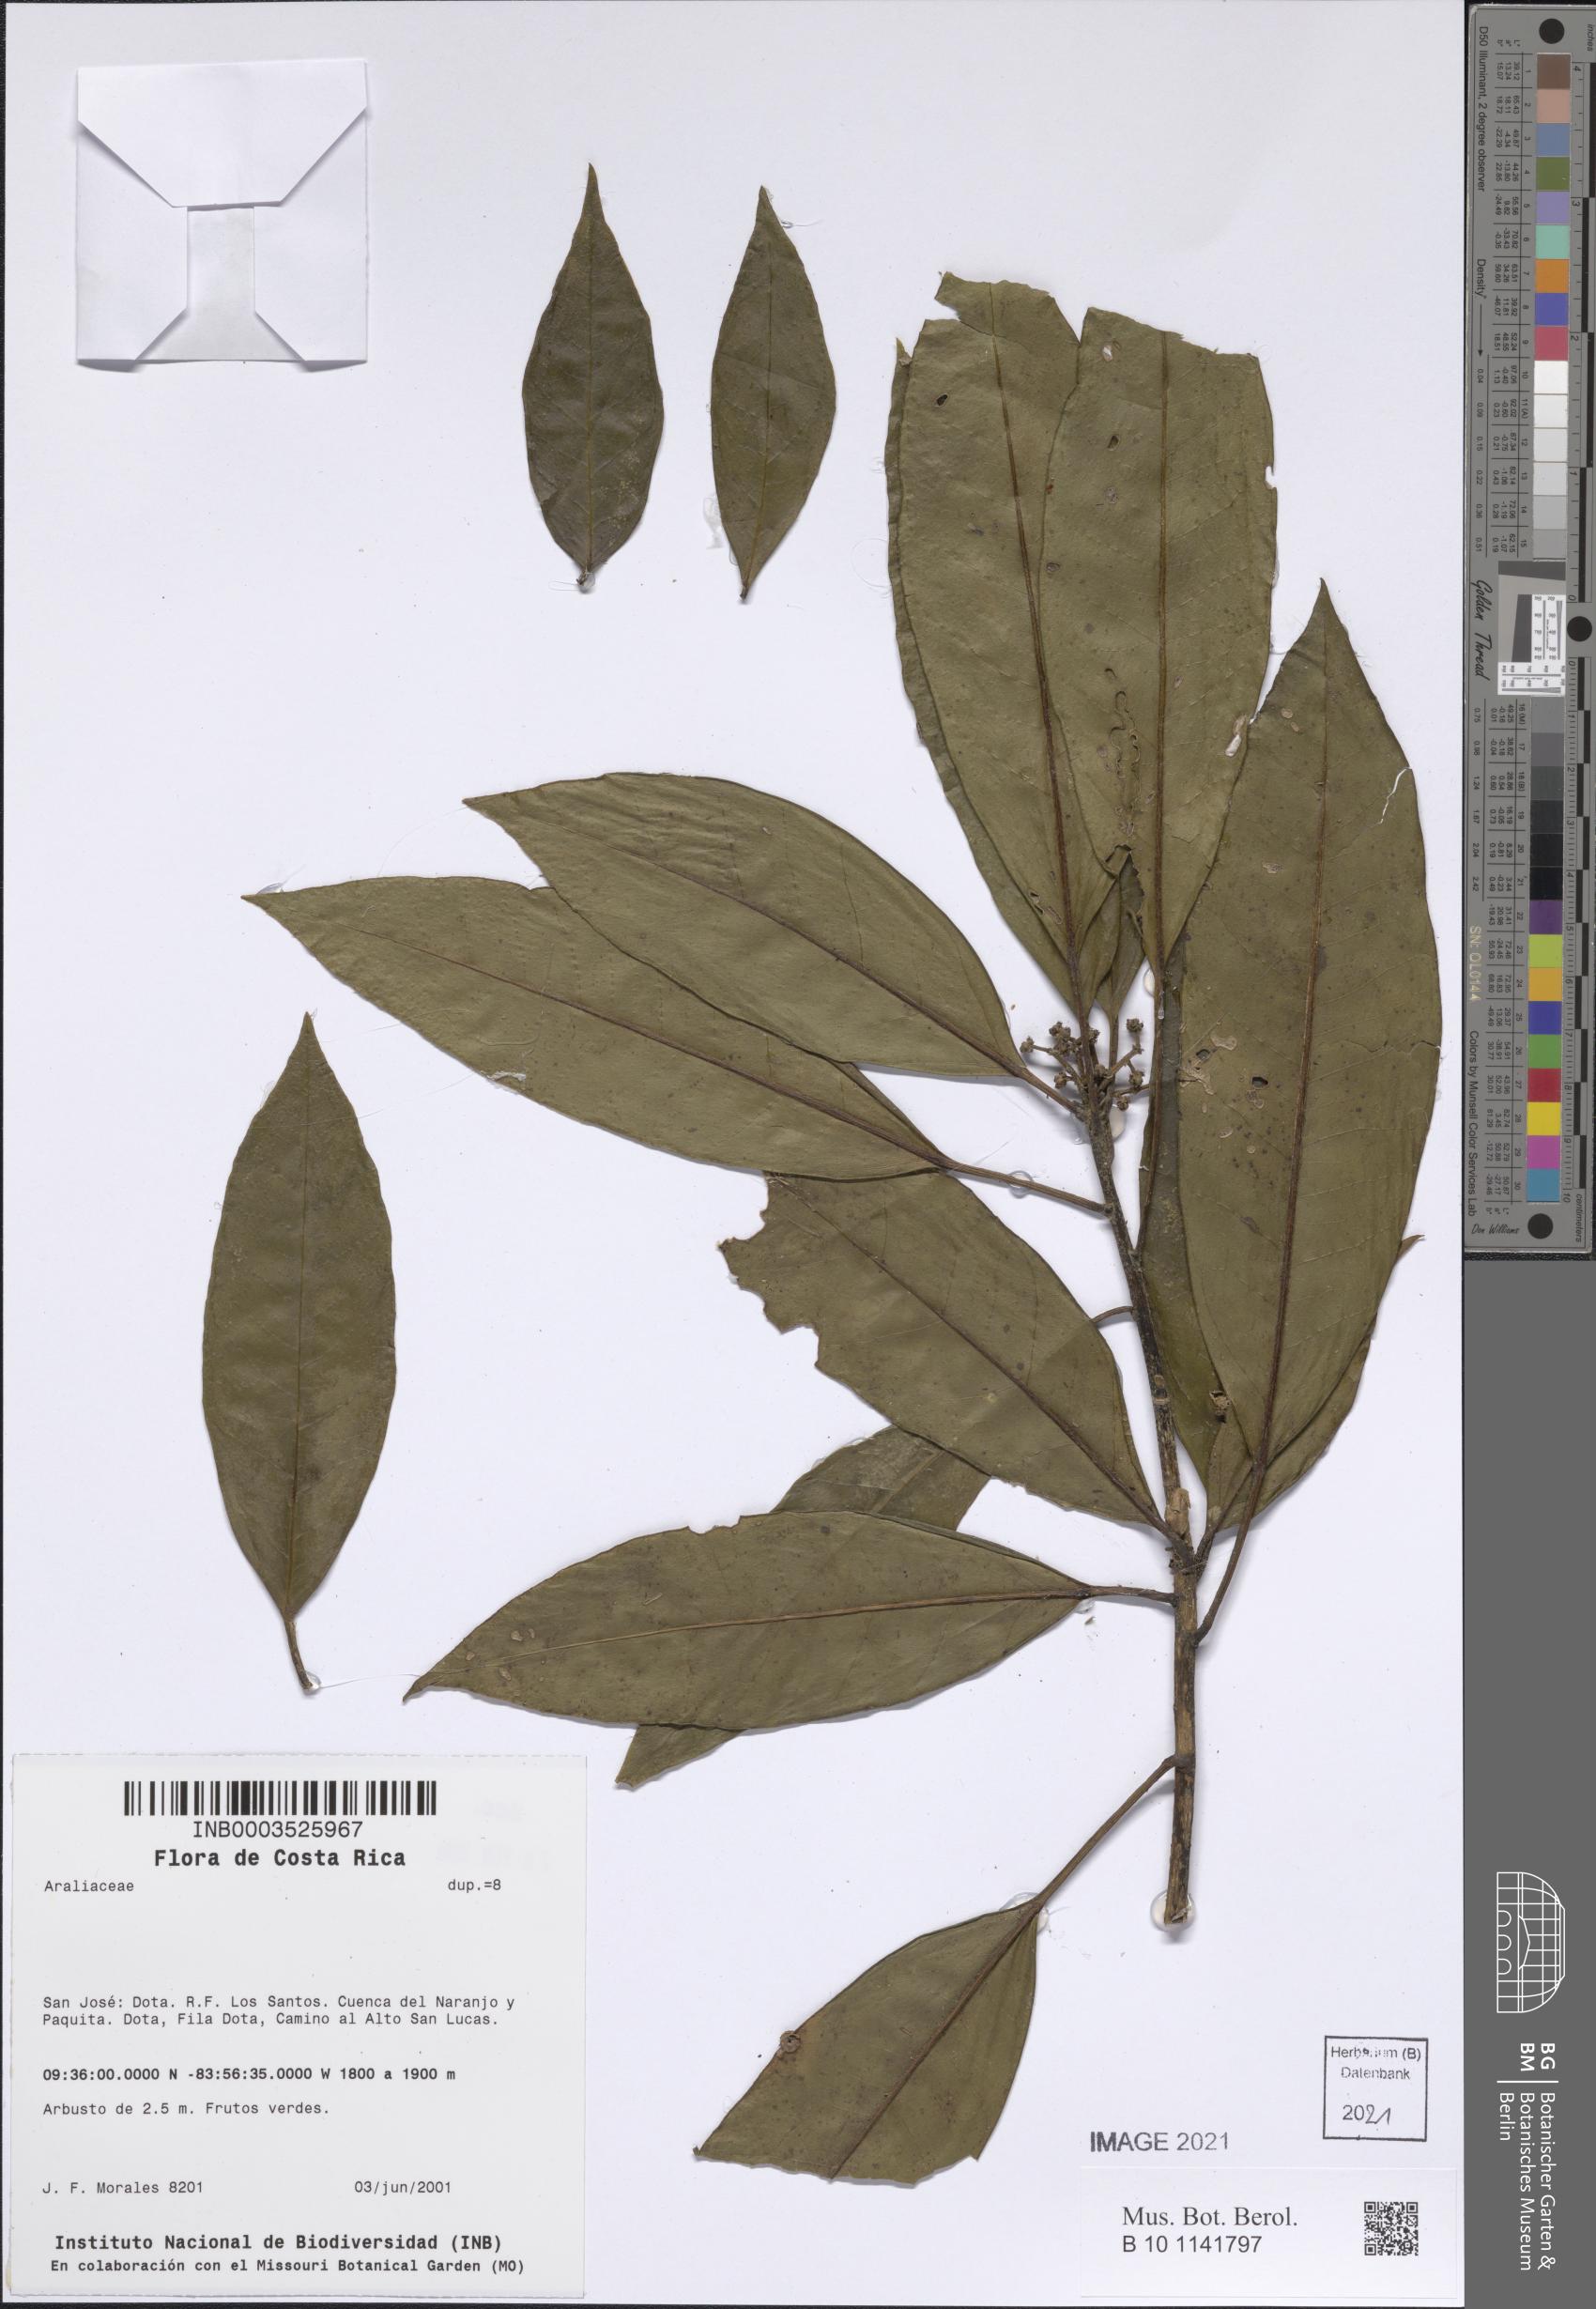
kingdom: Plantae
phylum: Tracheophyta
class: Magnoliopsida
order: Apiales
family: Araliaceae
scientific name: Araliaceae
